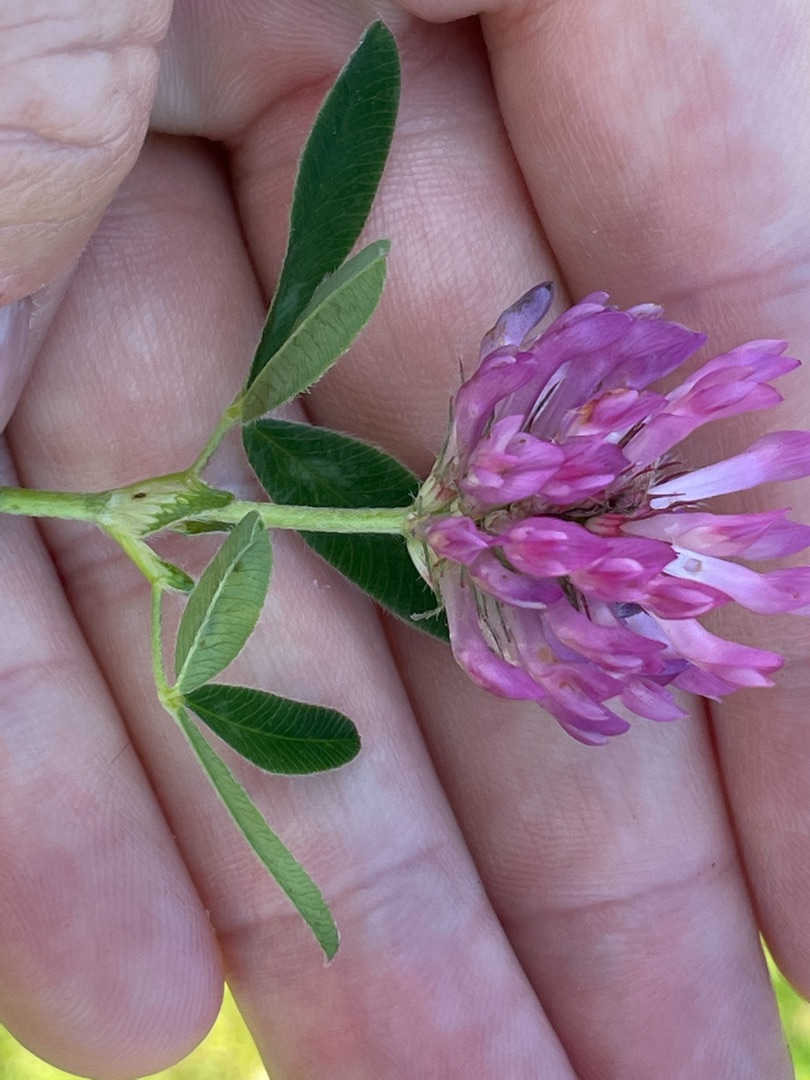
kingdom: Plantae
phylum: Tracheophyta
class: Magnoliopsida
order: Fabales
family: Fabaceae
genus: Trifolium
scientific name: Trifolium medium
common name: Bugtet kløver
